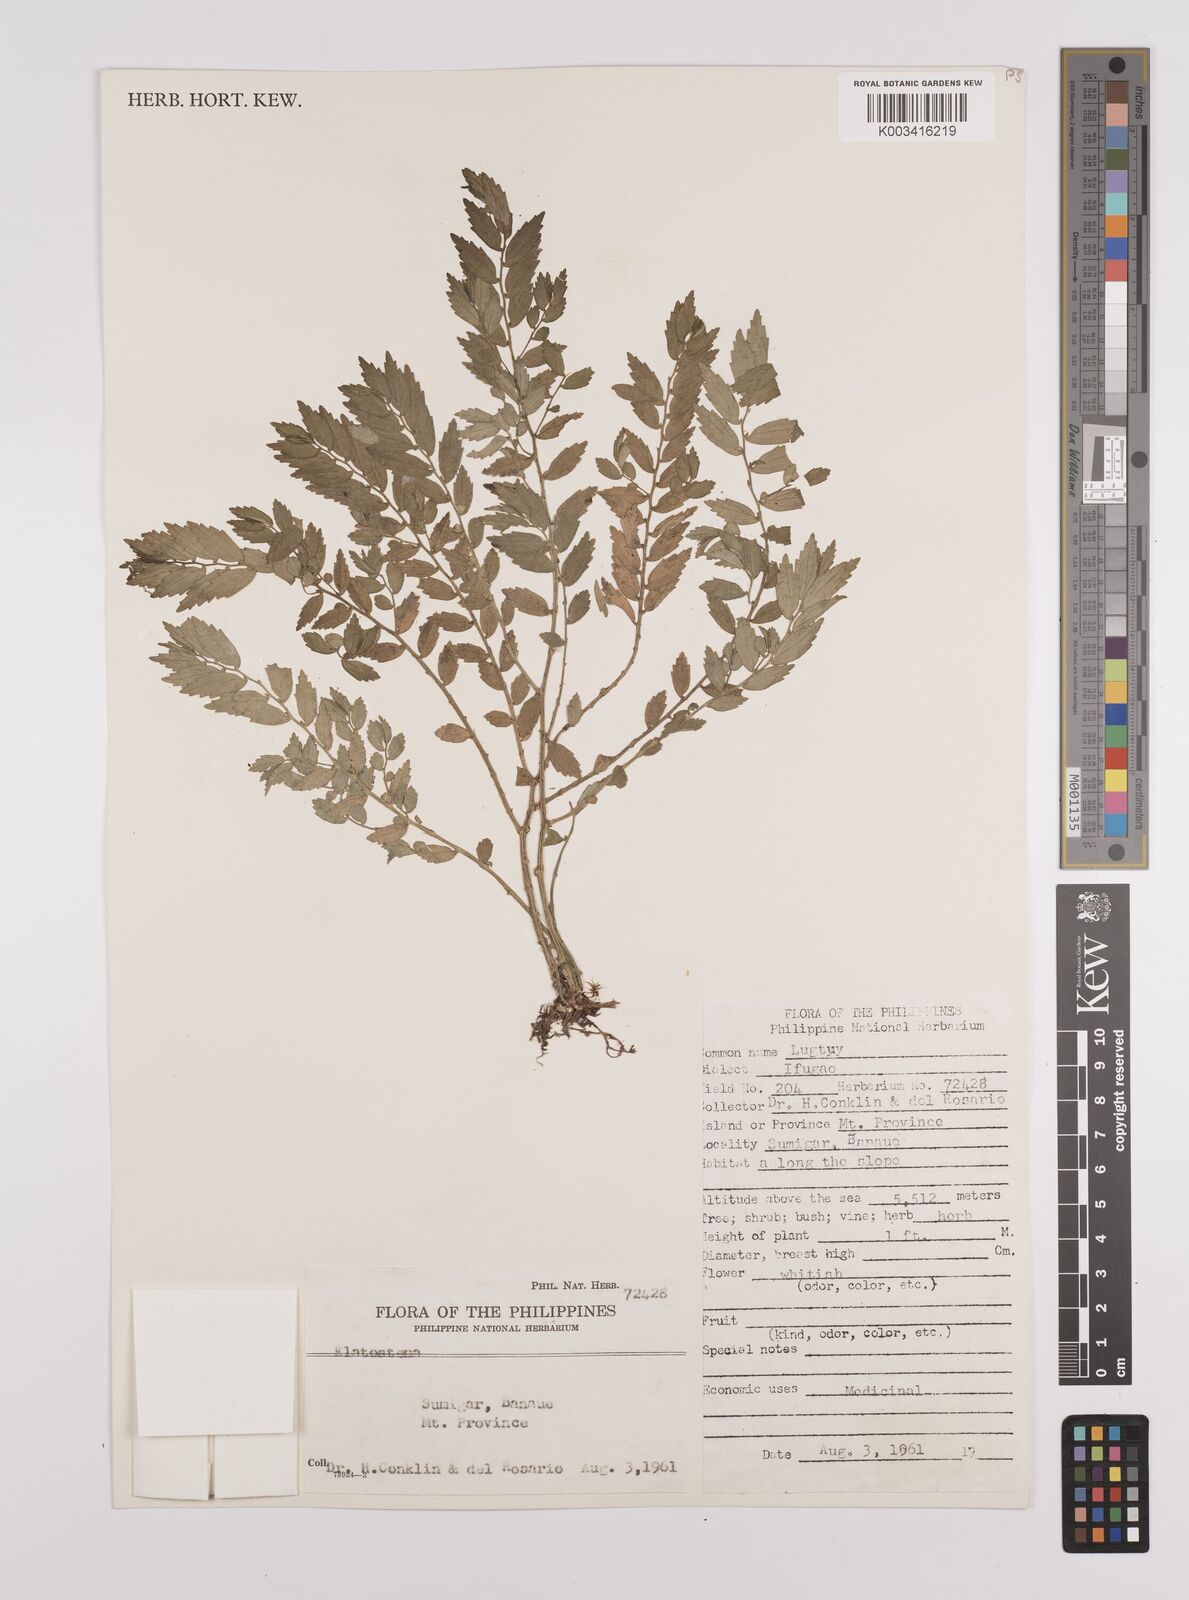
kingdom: Plantae
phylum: Tracheophyta
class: Magnoliopsida
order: Rosales
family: Urticaceae
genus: Elatostema
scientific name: Elatostema
